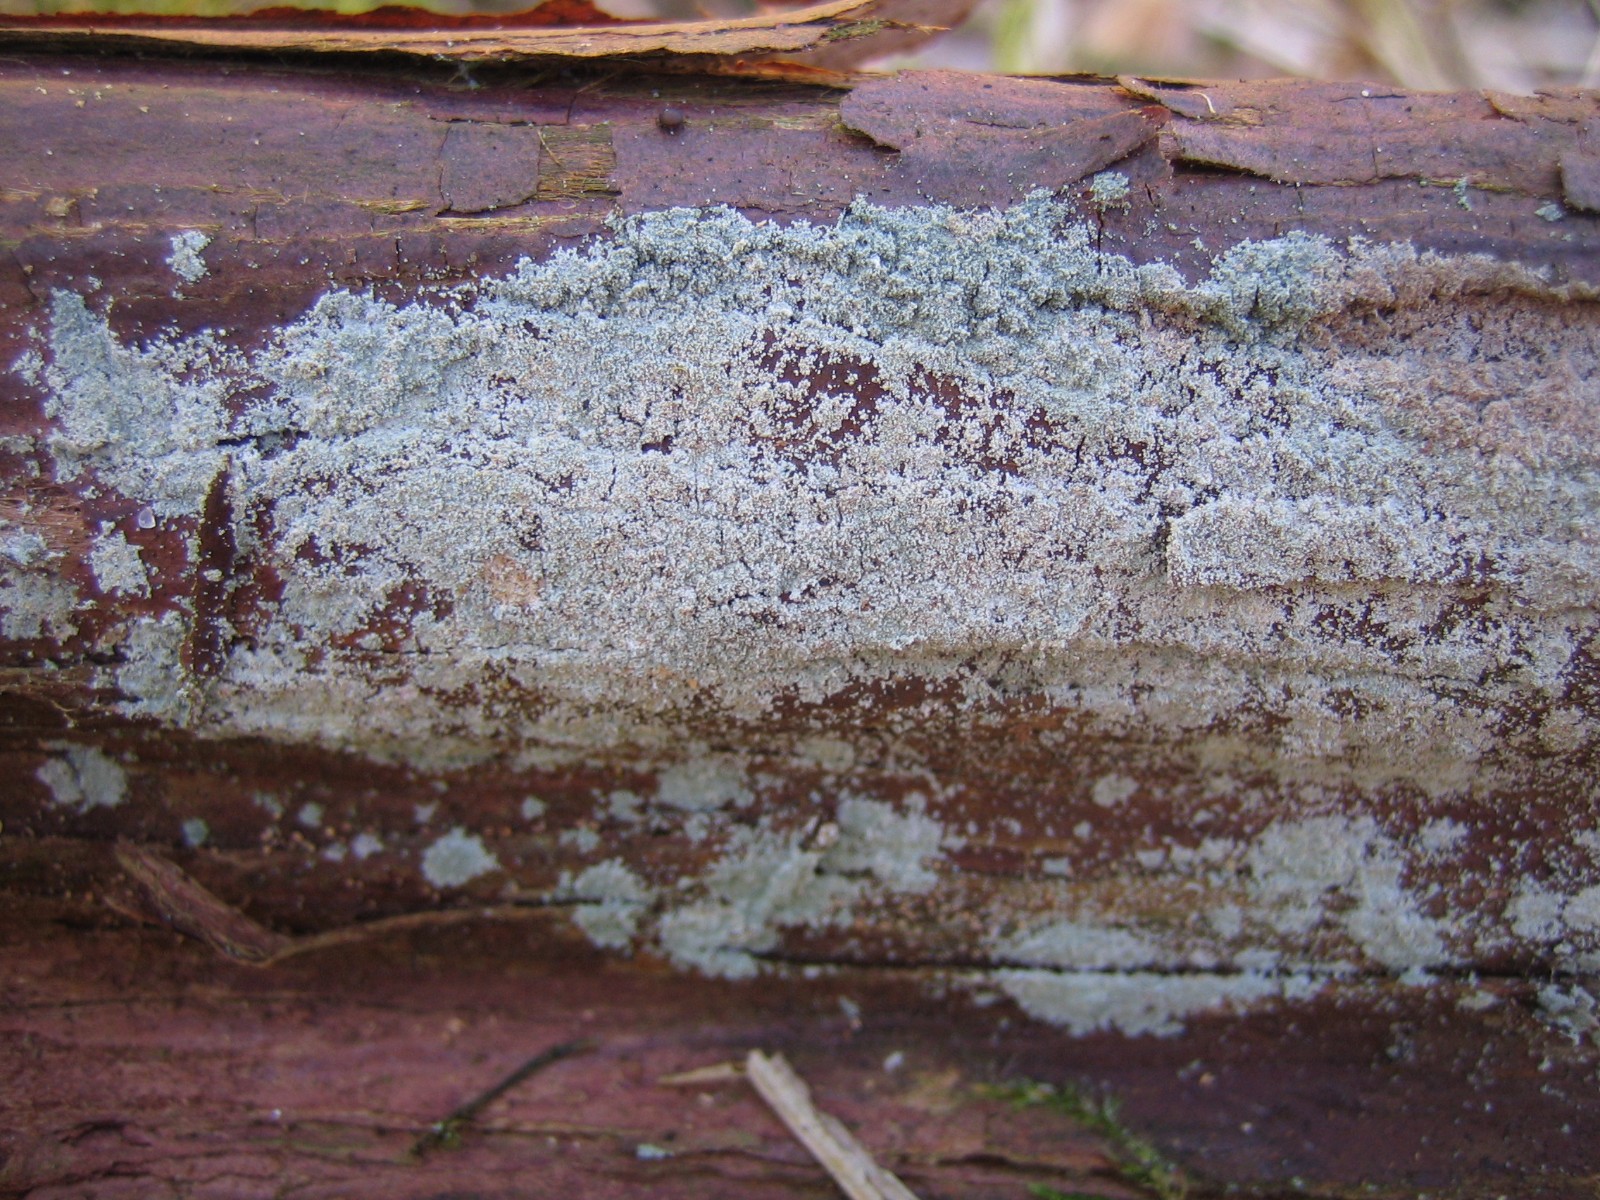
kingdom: Fungi
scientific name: Fungi
